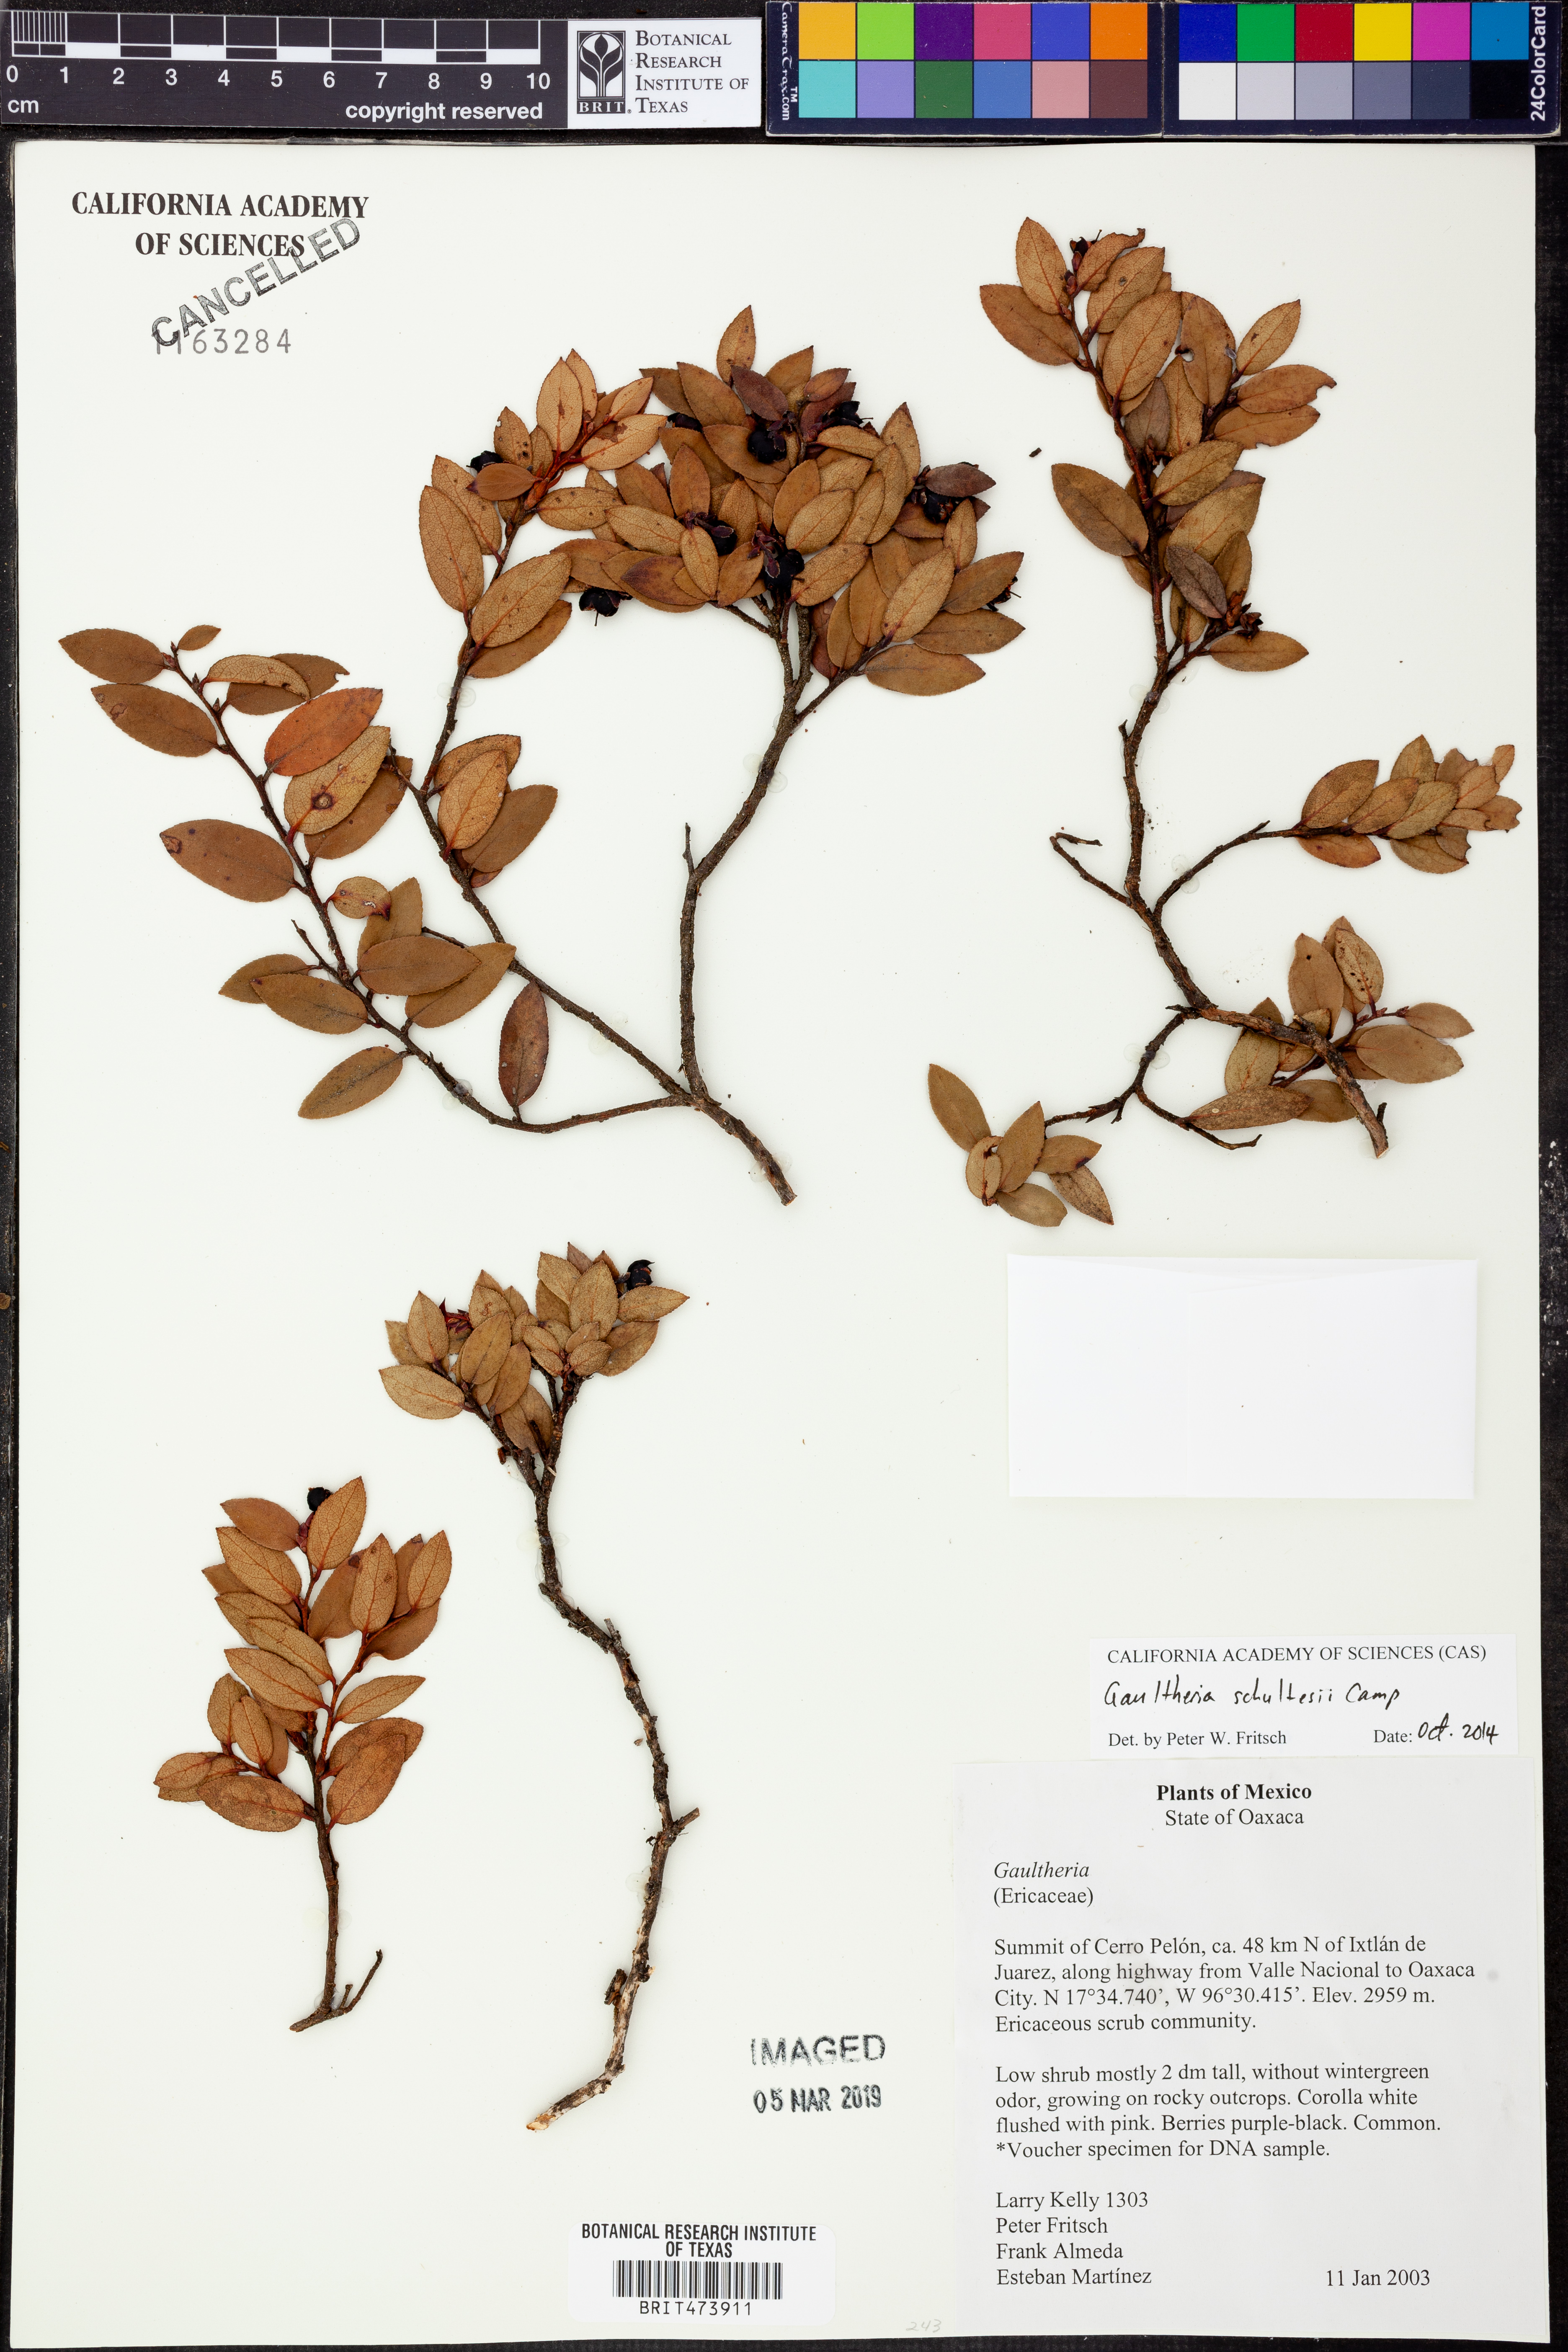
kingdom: Plantae
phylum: Tracheophyta
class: Magnoliopsida
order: Ericales
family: Ericaceae
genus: Gaultheria
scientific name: Gaultheria schultesii
